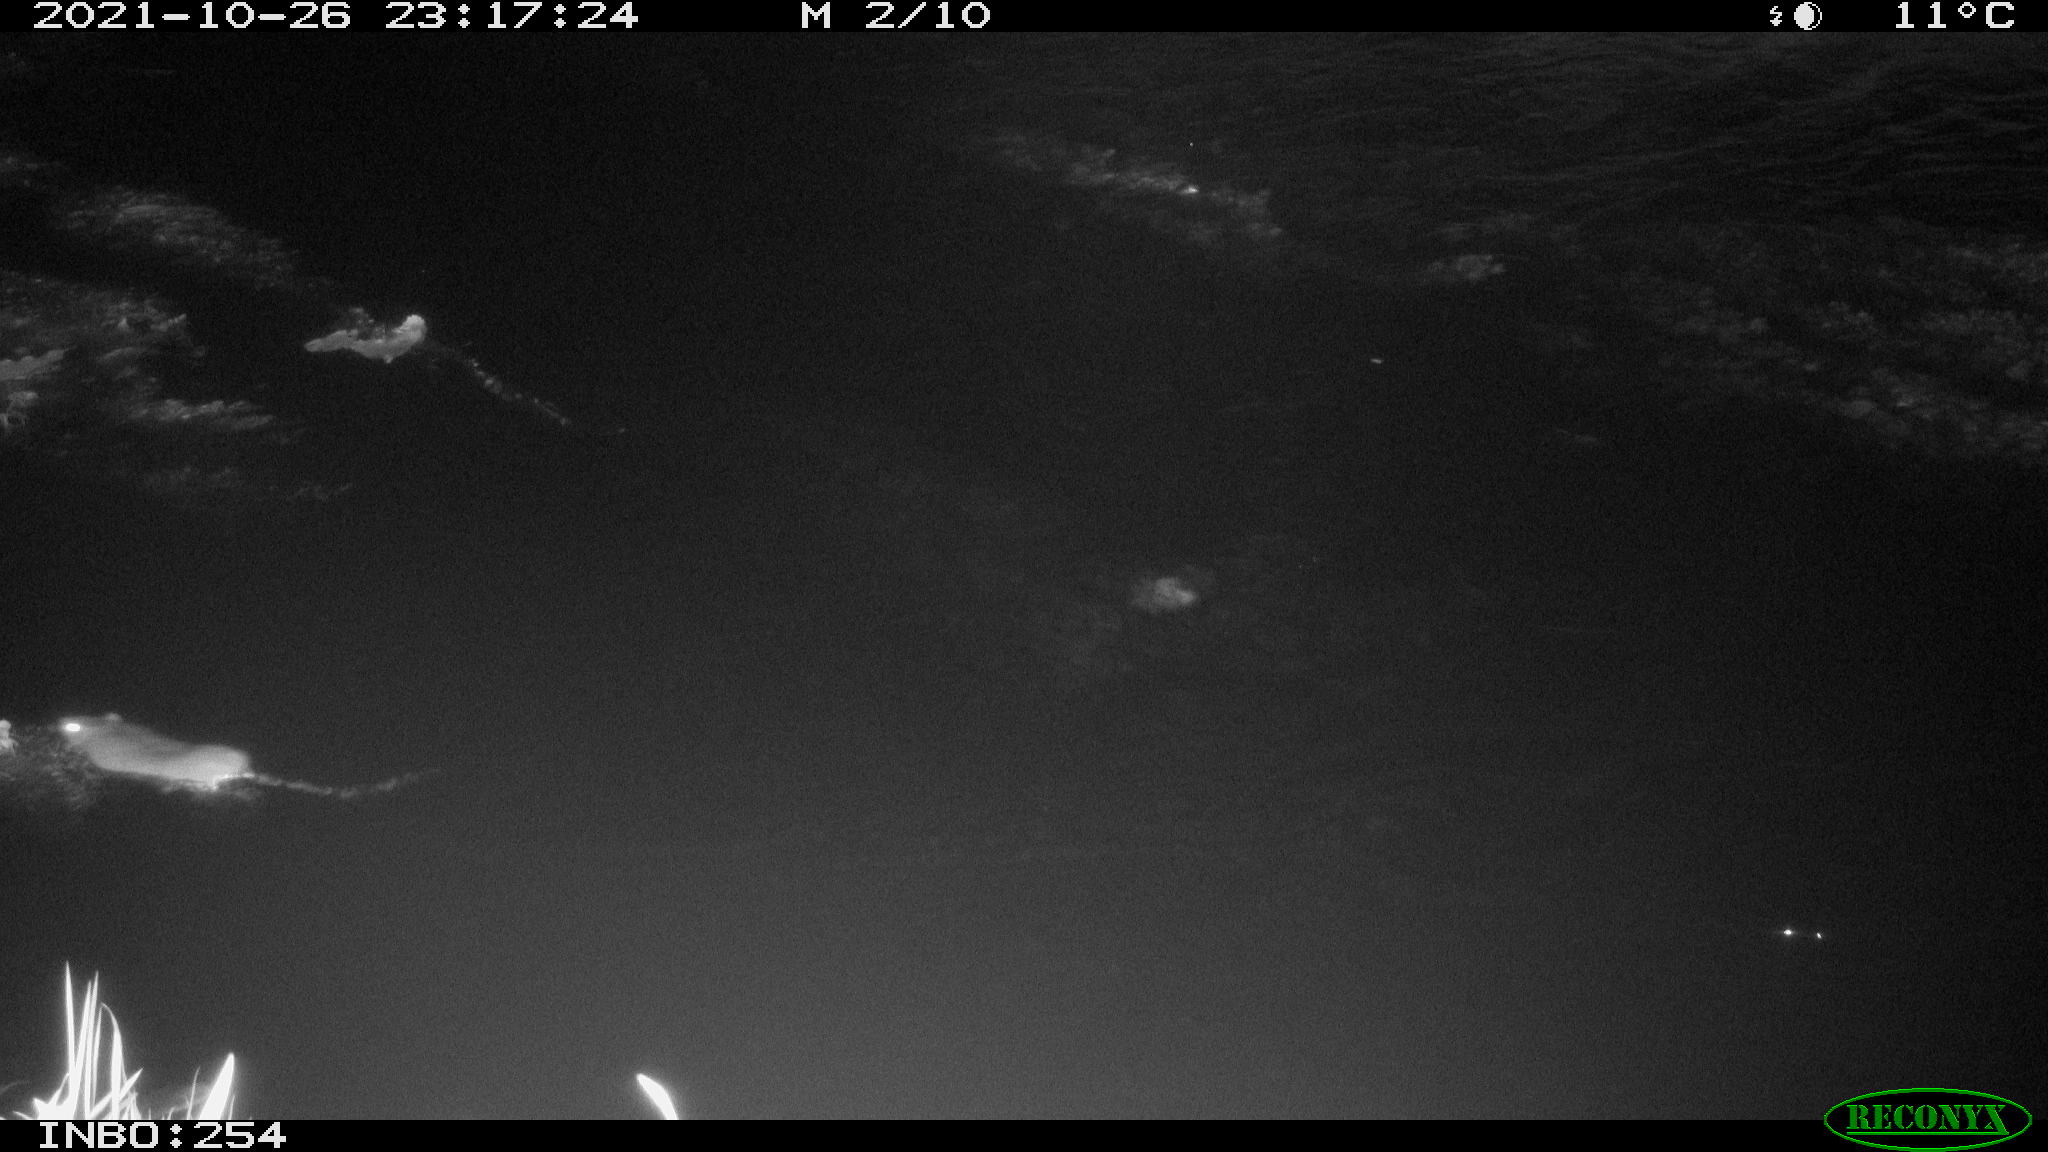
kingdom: Animalia
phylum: Chordata
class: Mammalia
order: Rodentia
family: Muridae
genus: Rattus
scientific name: Rattus norvegicus
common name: Brown rat
